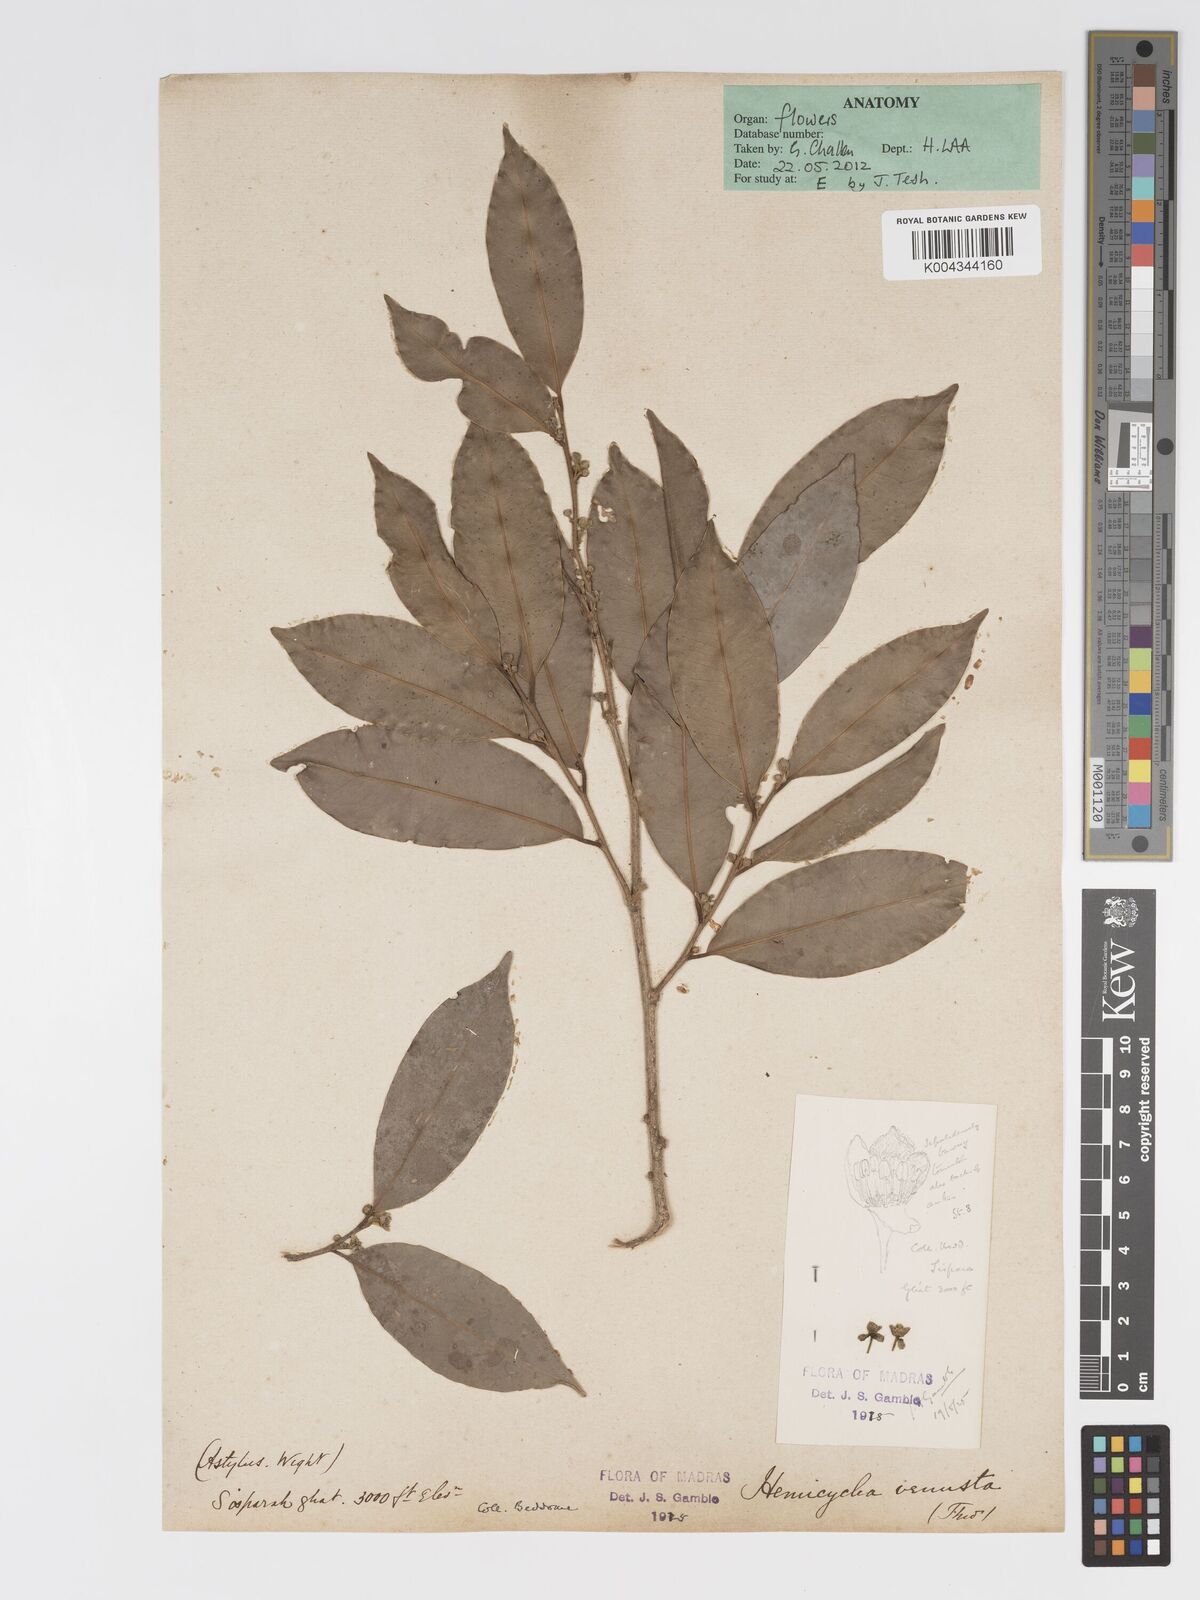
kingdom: Plantae
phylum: Tracheophyta
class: Magnoliopsida
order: Malpighiales
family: Putranjivaceae
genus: Drypetes
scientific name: Drypetes venusta
